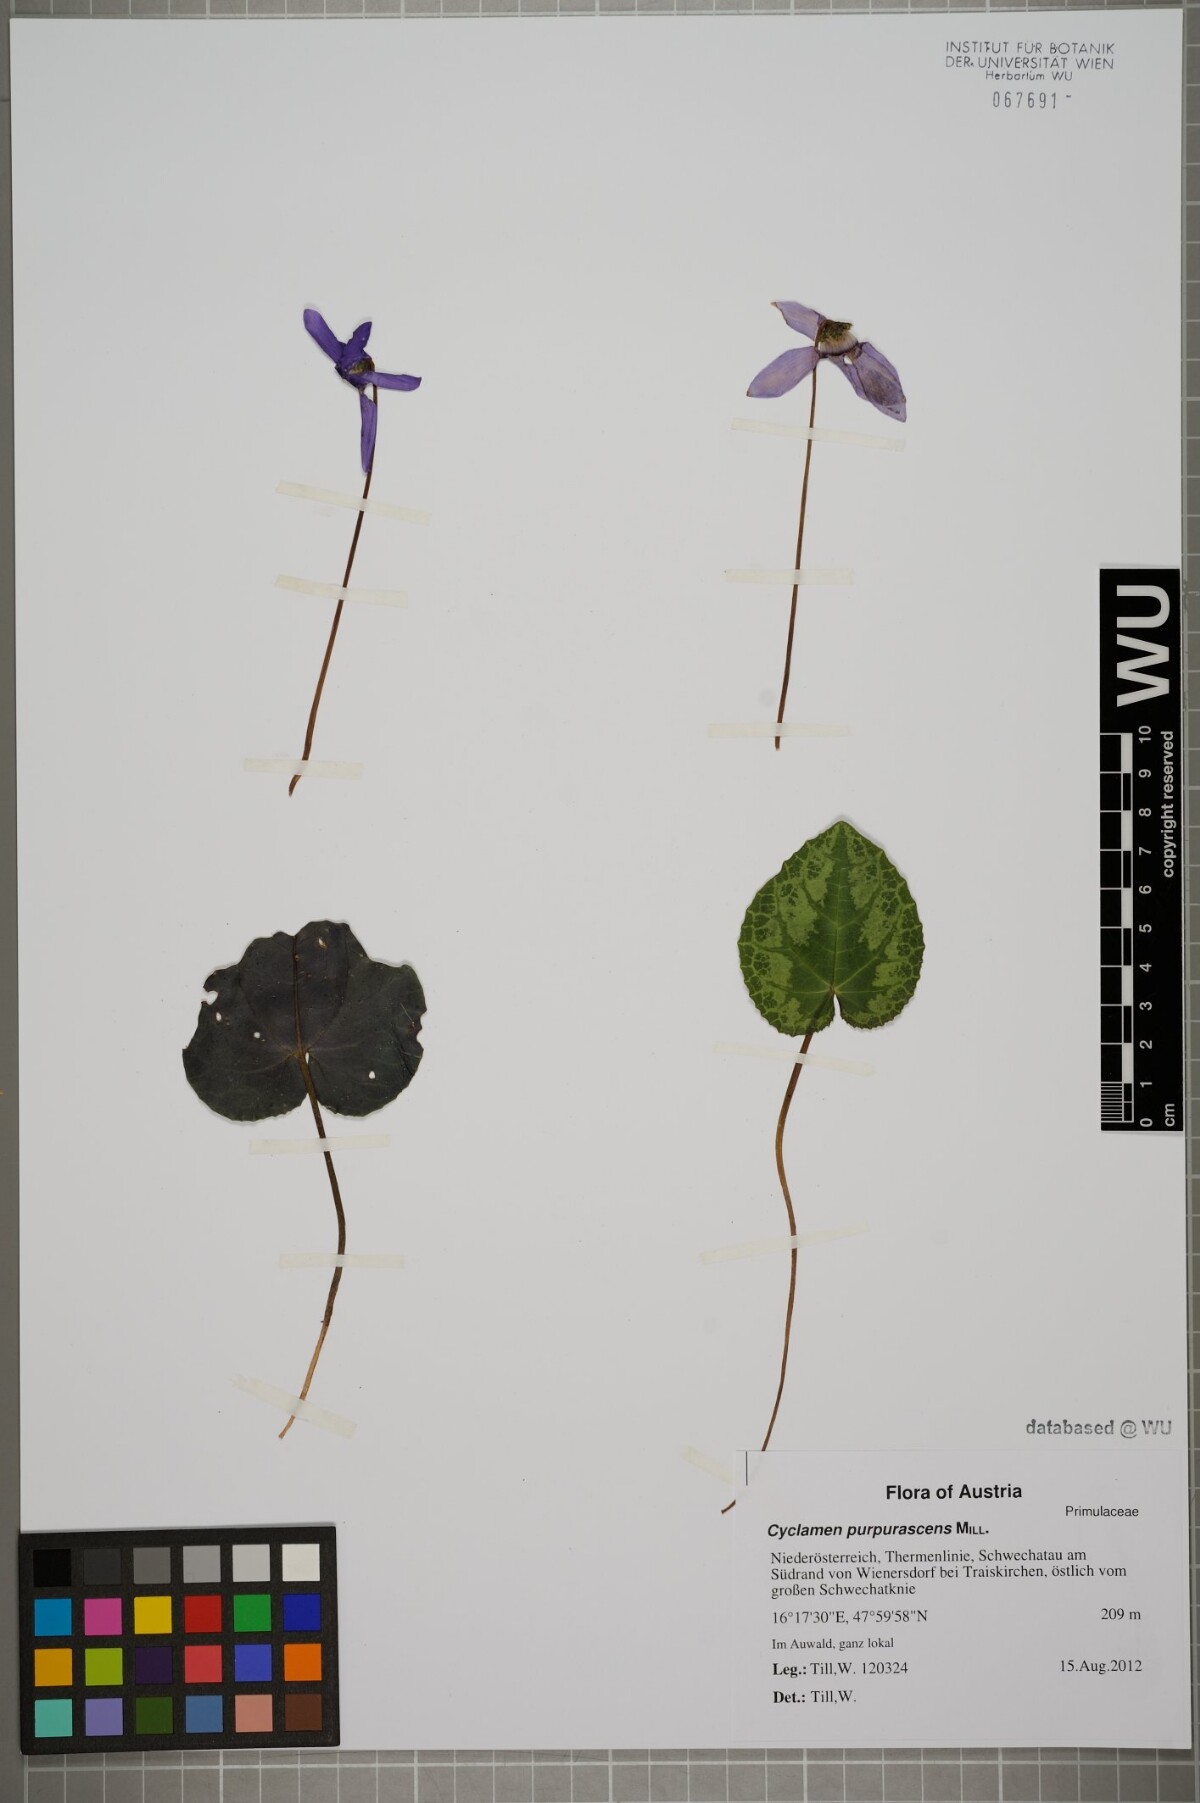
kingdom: Plantae
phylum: Tracheophyta
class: Magnoliopsida
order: Ericales
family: Primulaceae
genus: Cyclamen
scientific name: Cyclamen purpurascens
